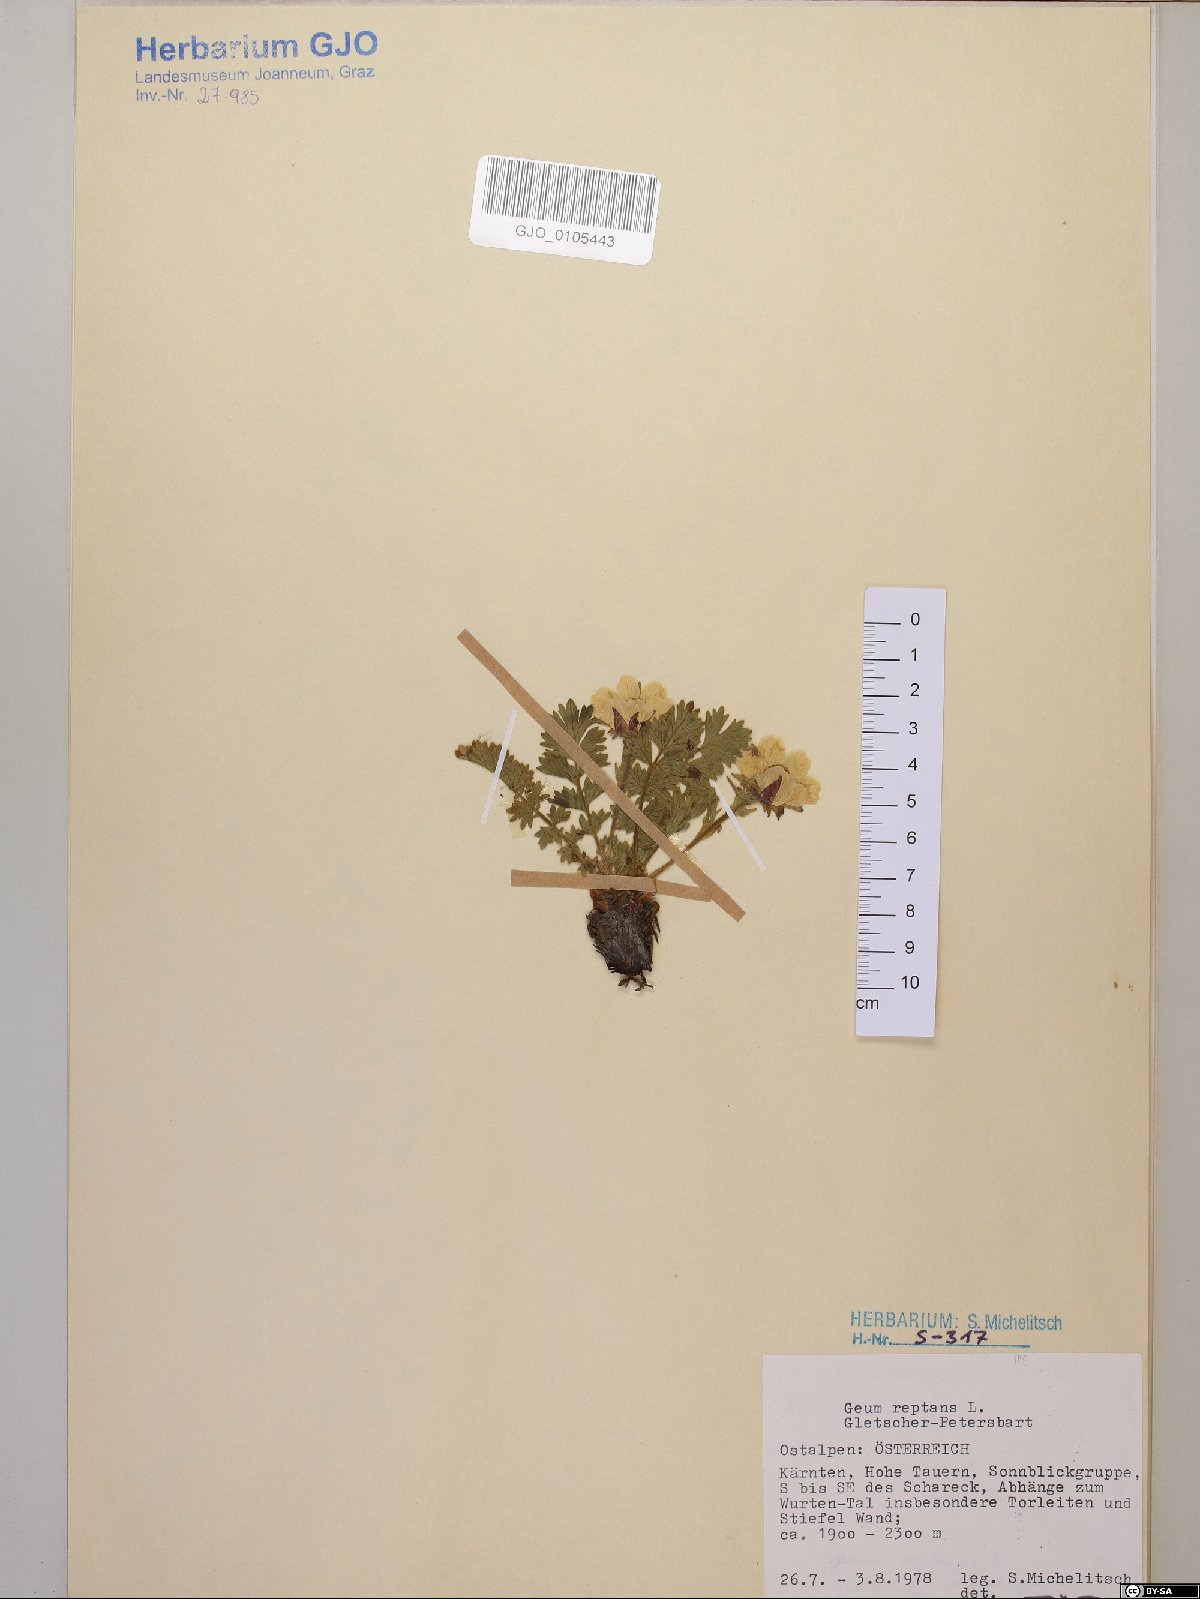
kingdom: Plantae
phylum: Tracheophyta
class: Magnoliopsida
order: Rosales
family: Rosaceae
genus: Geum
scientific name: Geum reptans
